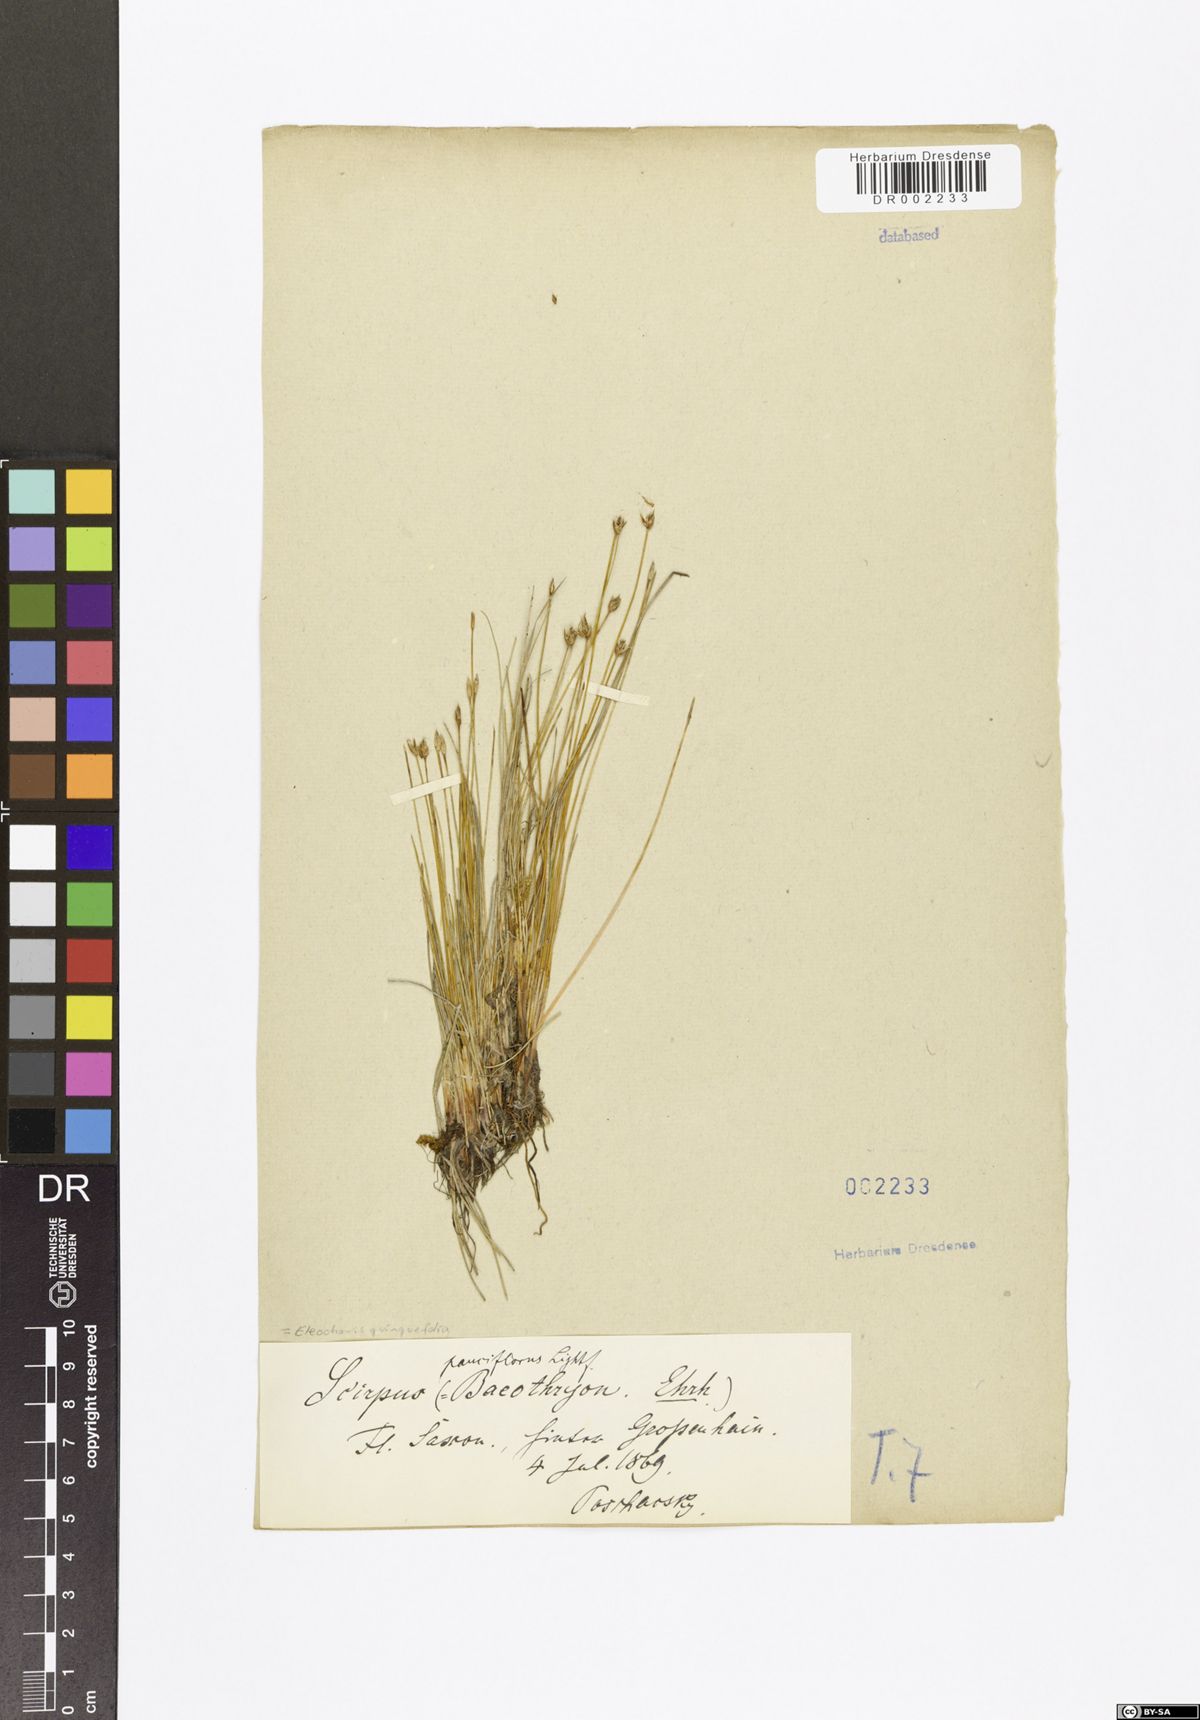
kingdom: Plantae
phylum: Tracheophyta
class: Liliopsida
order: Poales
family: Cyperaceae
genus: Eleocharis
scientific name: Eleocharis quinqueflora
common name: Few-flowered spike-rush
